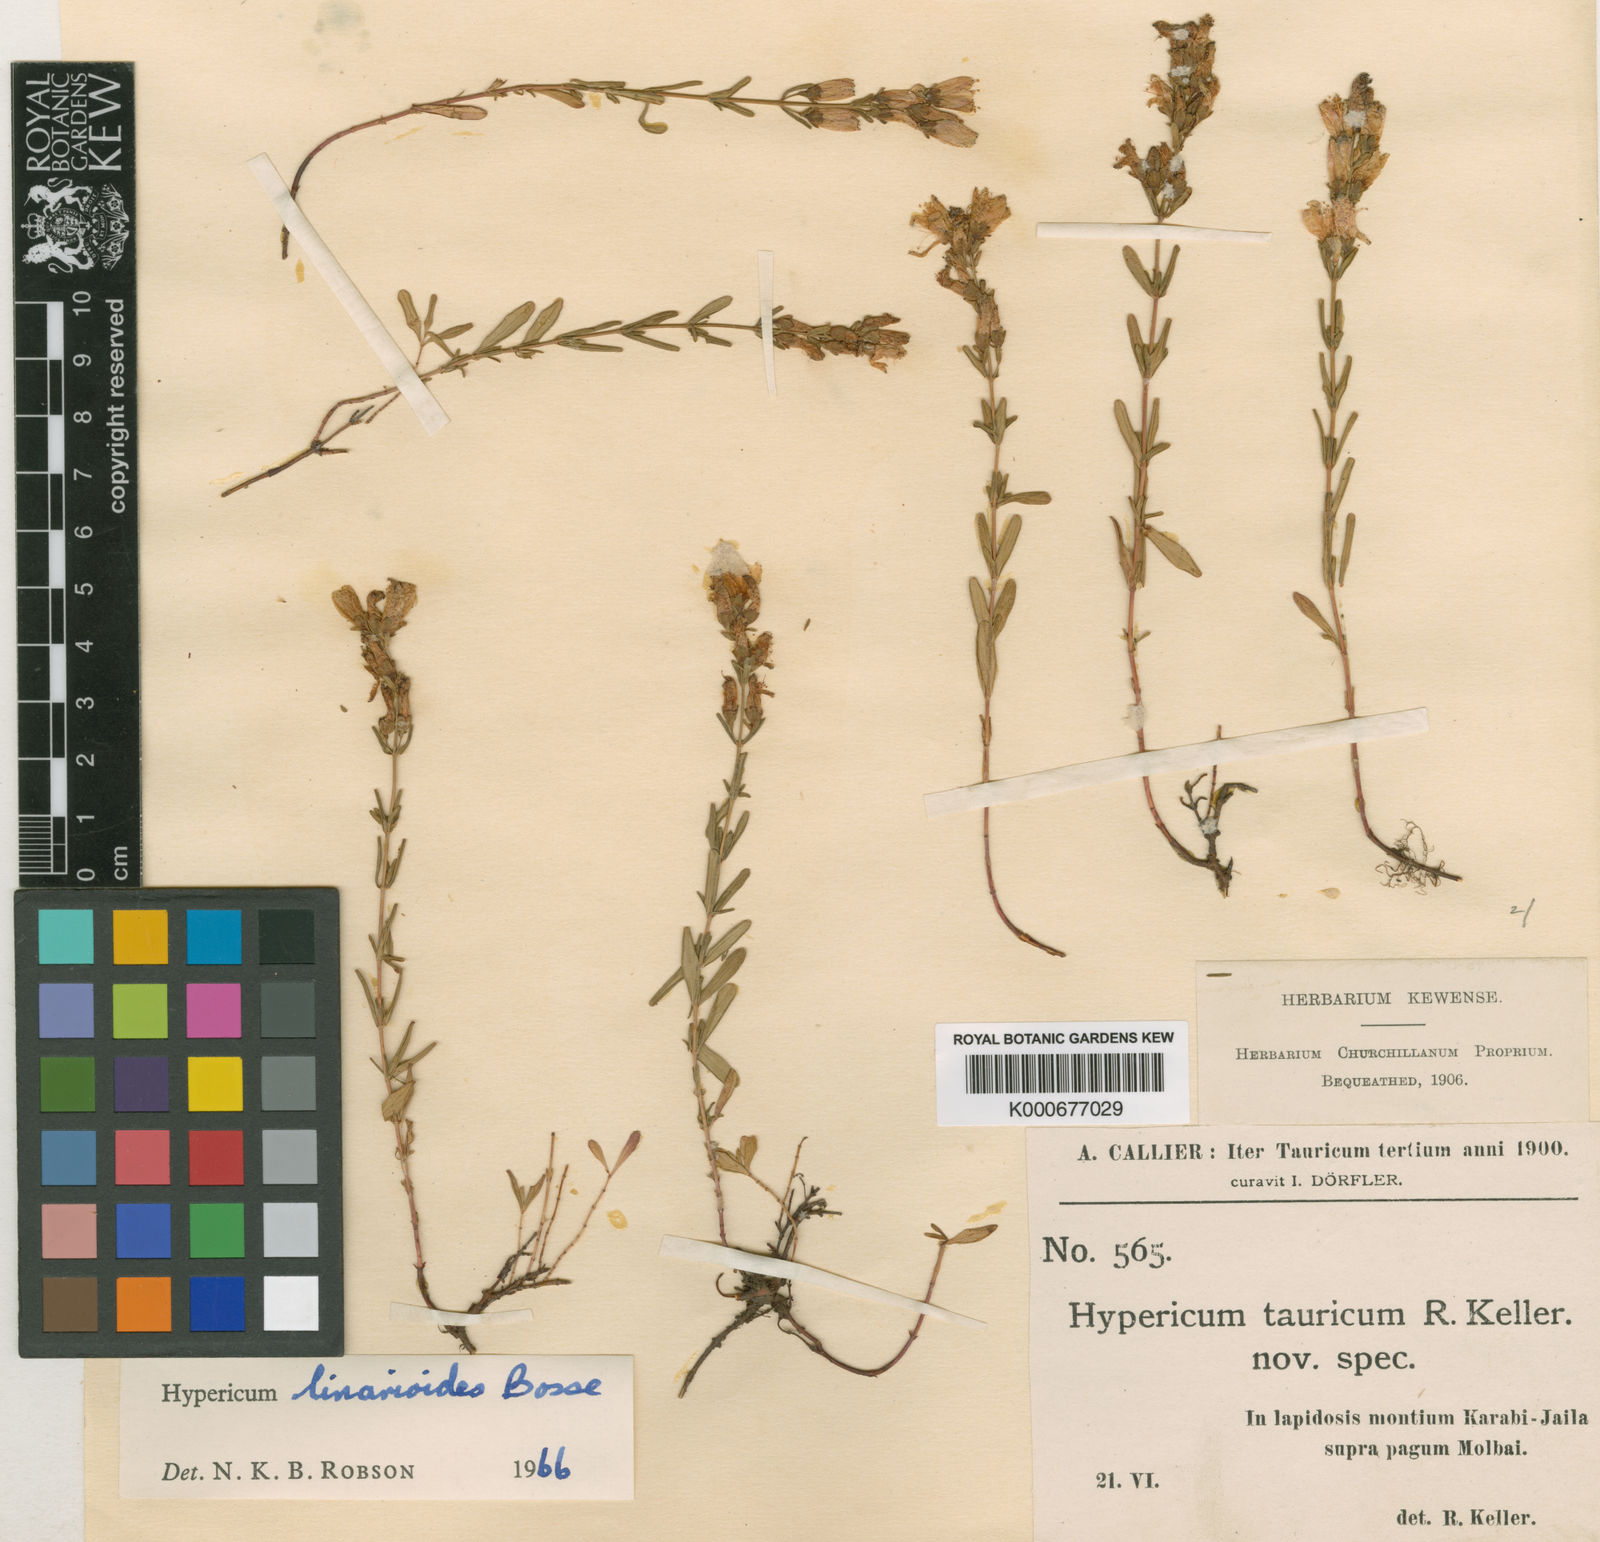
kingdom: Plantae
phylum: Tracheophyta
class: Magnoliopsida
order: Malpighiales
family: Hypericaceae
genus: Hypericum
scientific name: Hypericum linarioides
